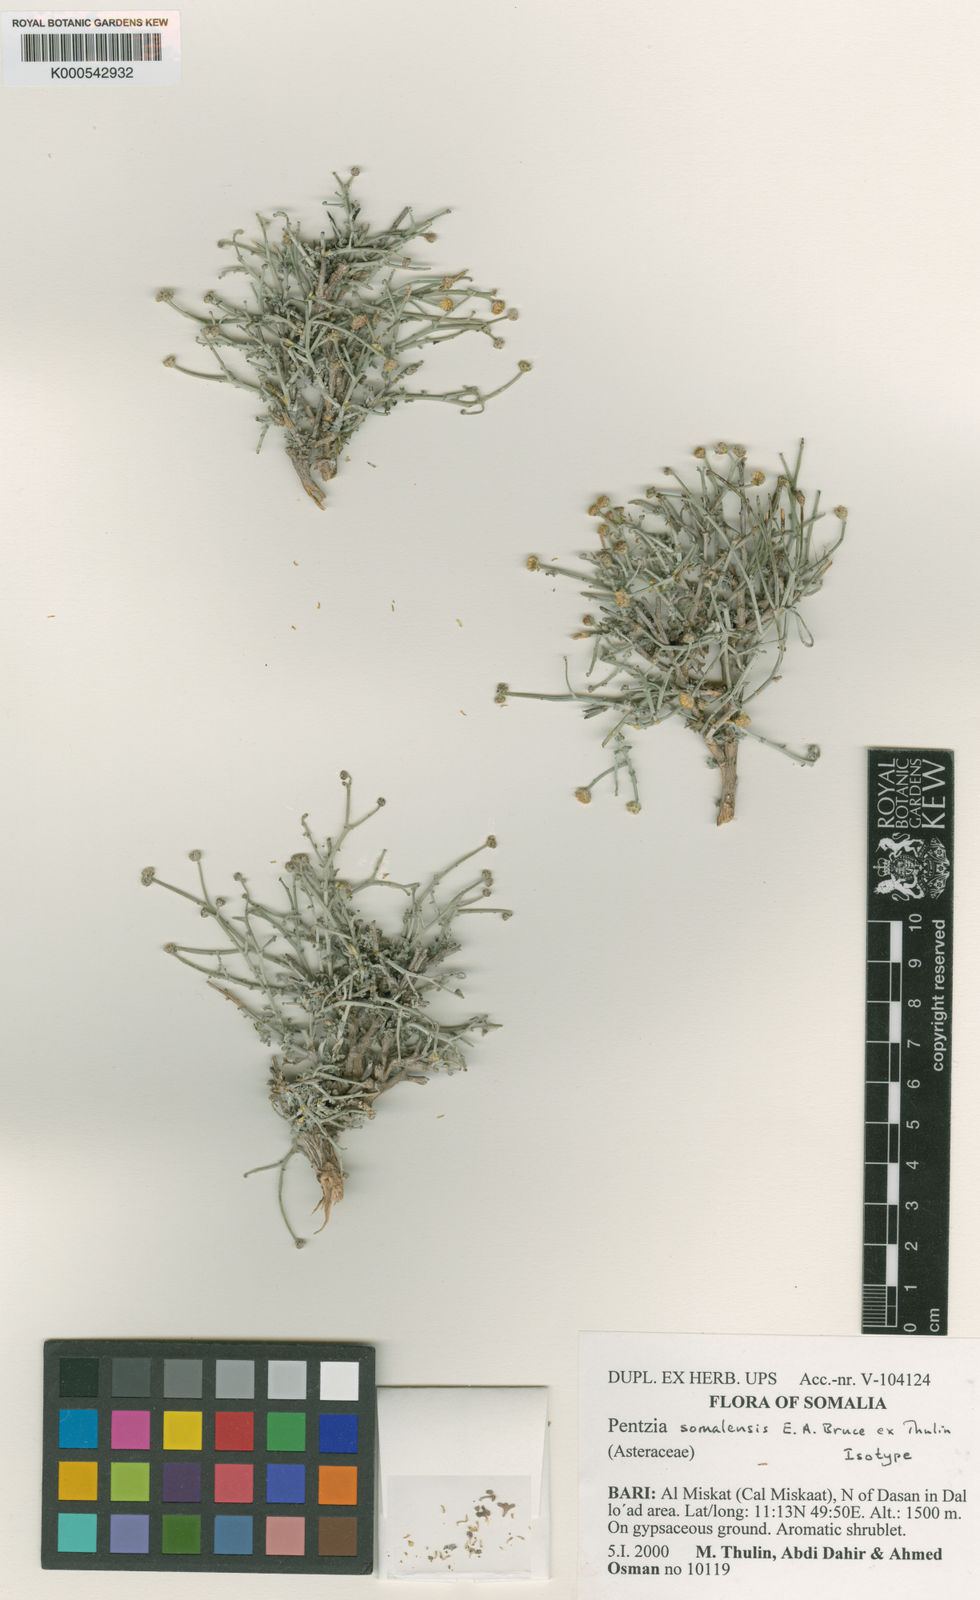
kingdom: Plantae
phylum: Tracheophyta
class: Magnoliopsida
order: Asterales
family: Asteraceae
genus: Pentzia
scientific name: Pentzia somalensis
